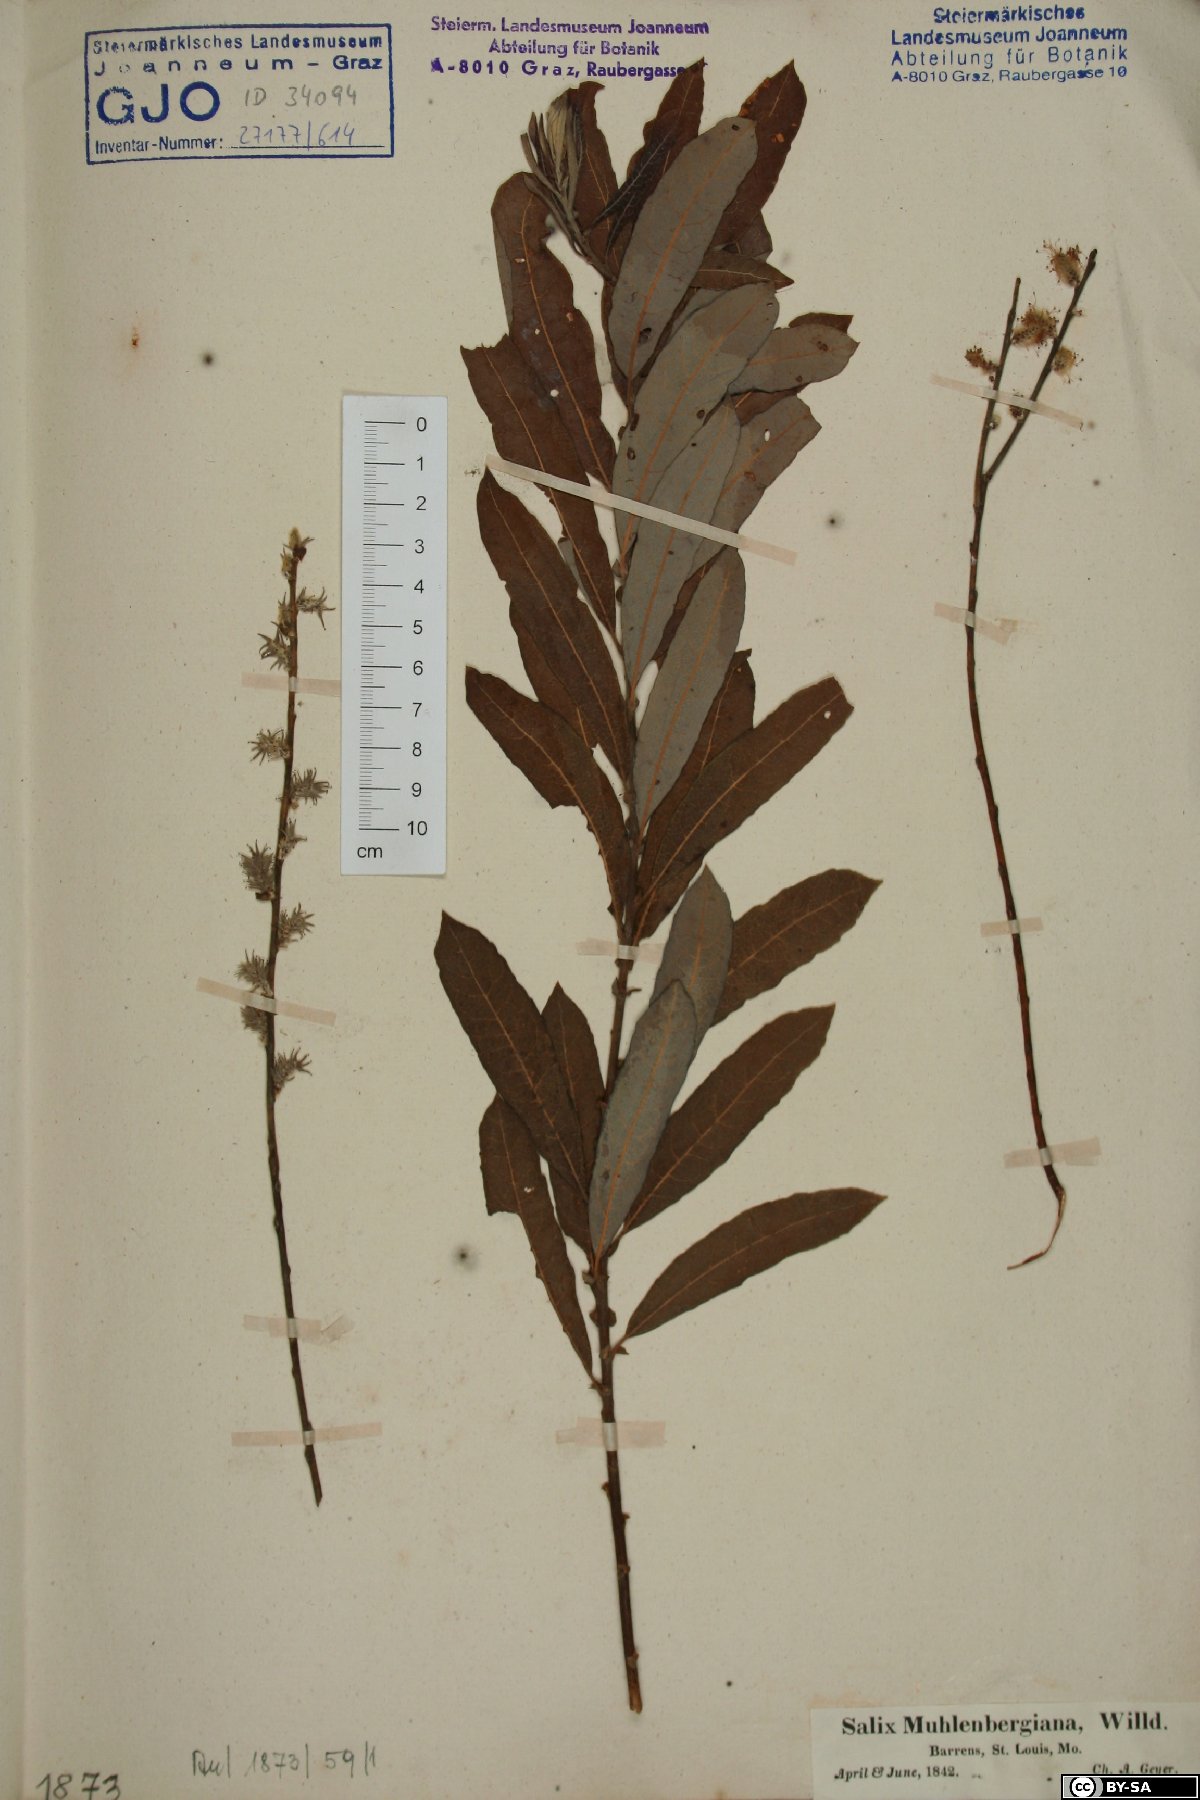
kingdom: Plantae
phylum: Tracheophyta
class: Magnoliopsida
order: Malpighiales
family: Salicaceae
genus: Salix
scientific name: Salix humilis
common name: Prairie willow
